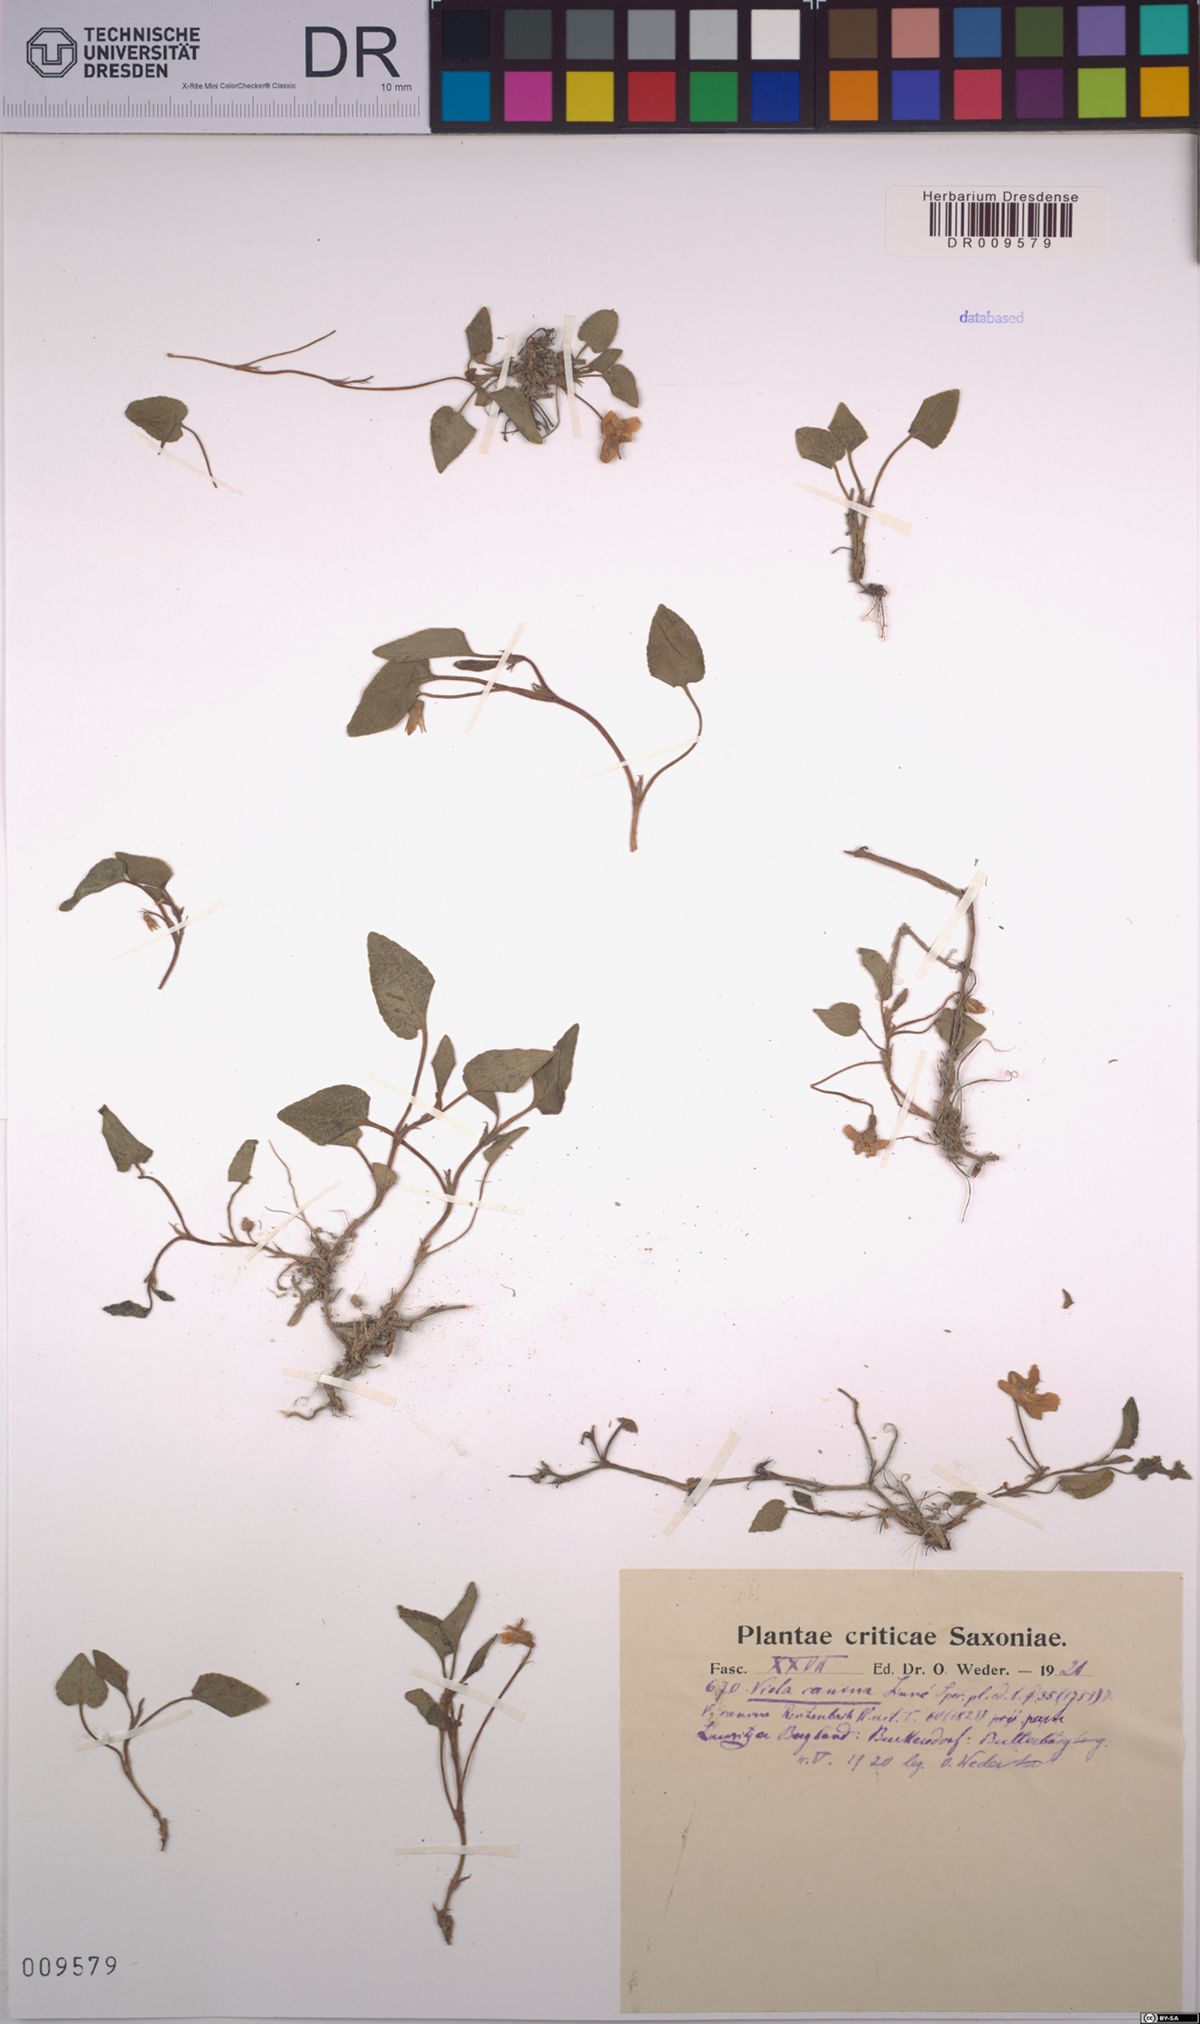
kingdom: Plantae
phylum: Tracheophyta
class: Magnoliopsida
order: Malpighiales
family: Violaceae
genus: Viola
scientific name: Viola canina
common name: Heath dog-violet
